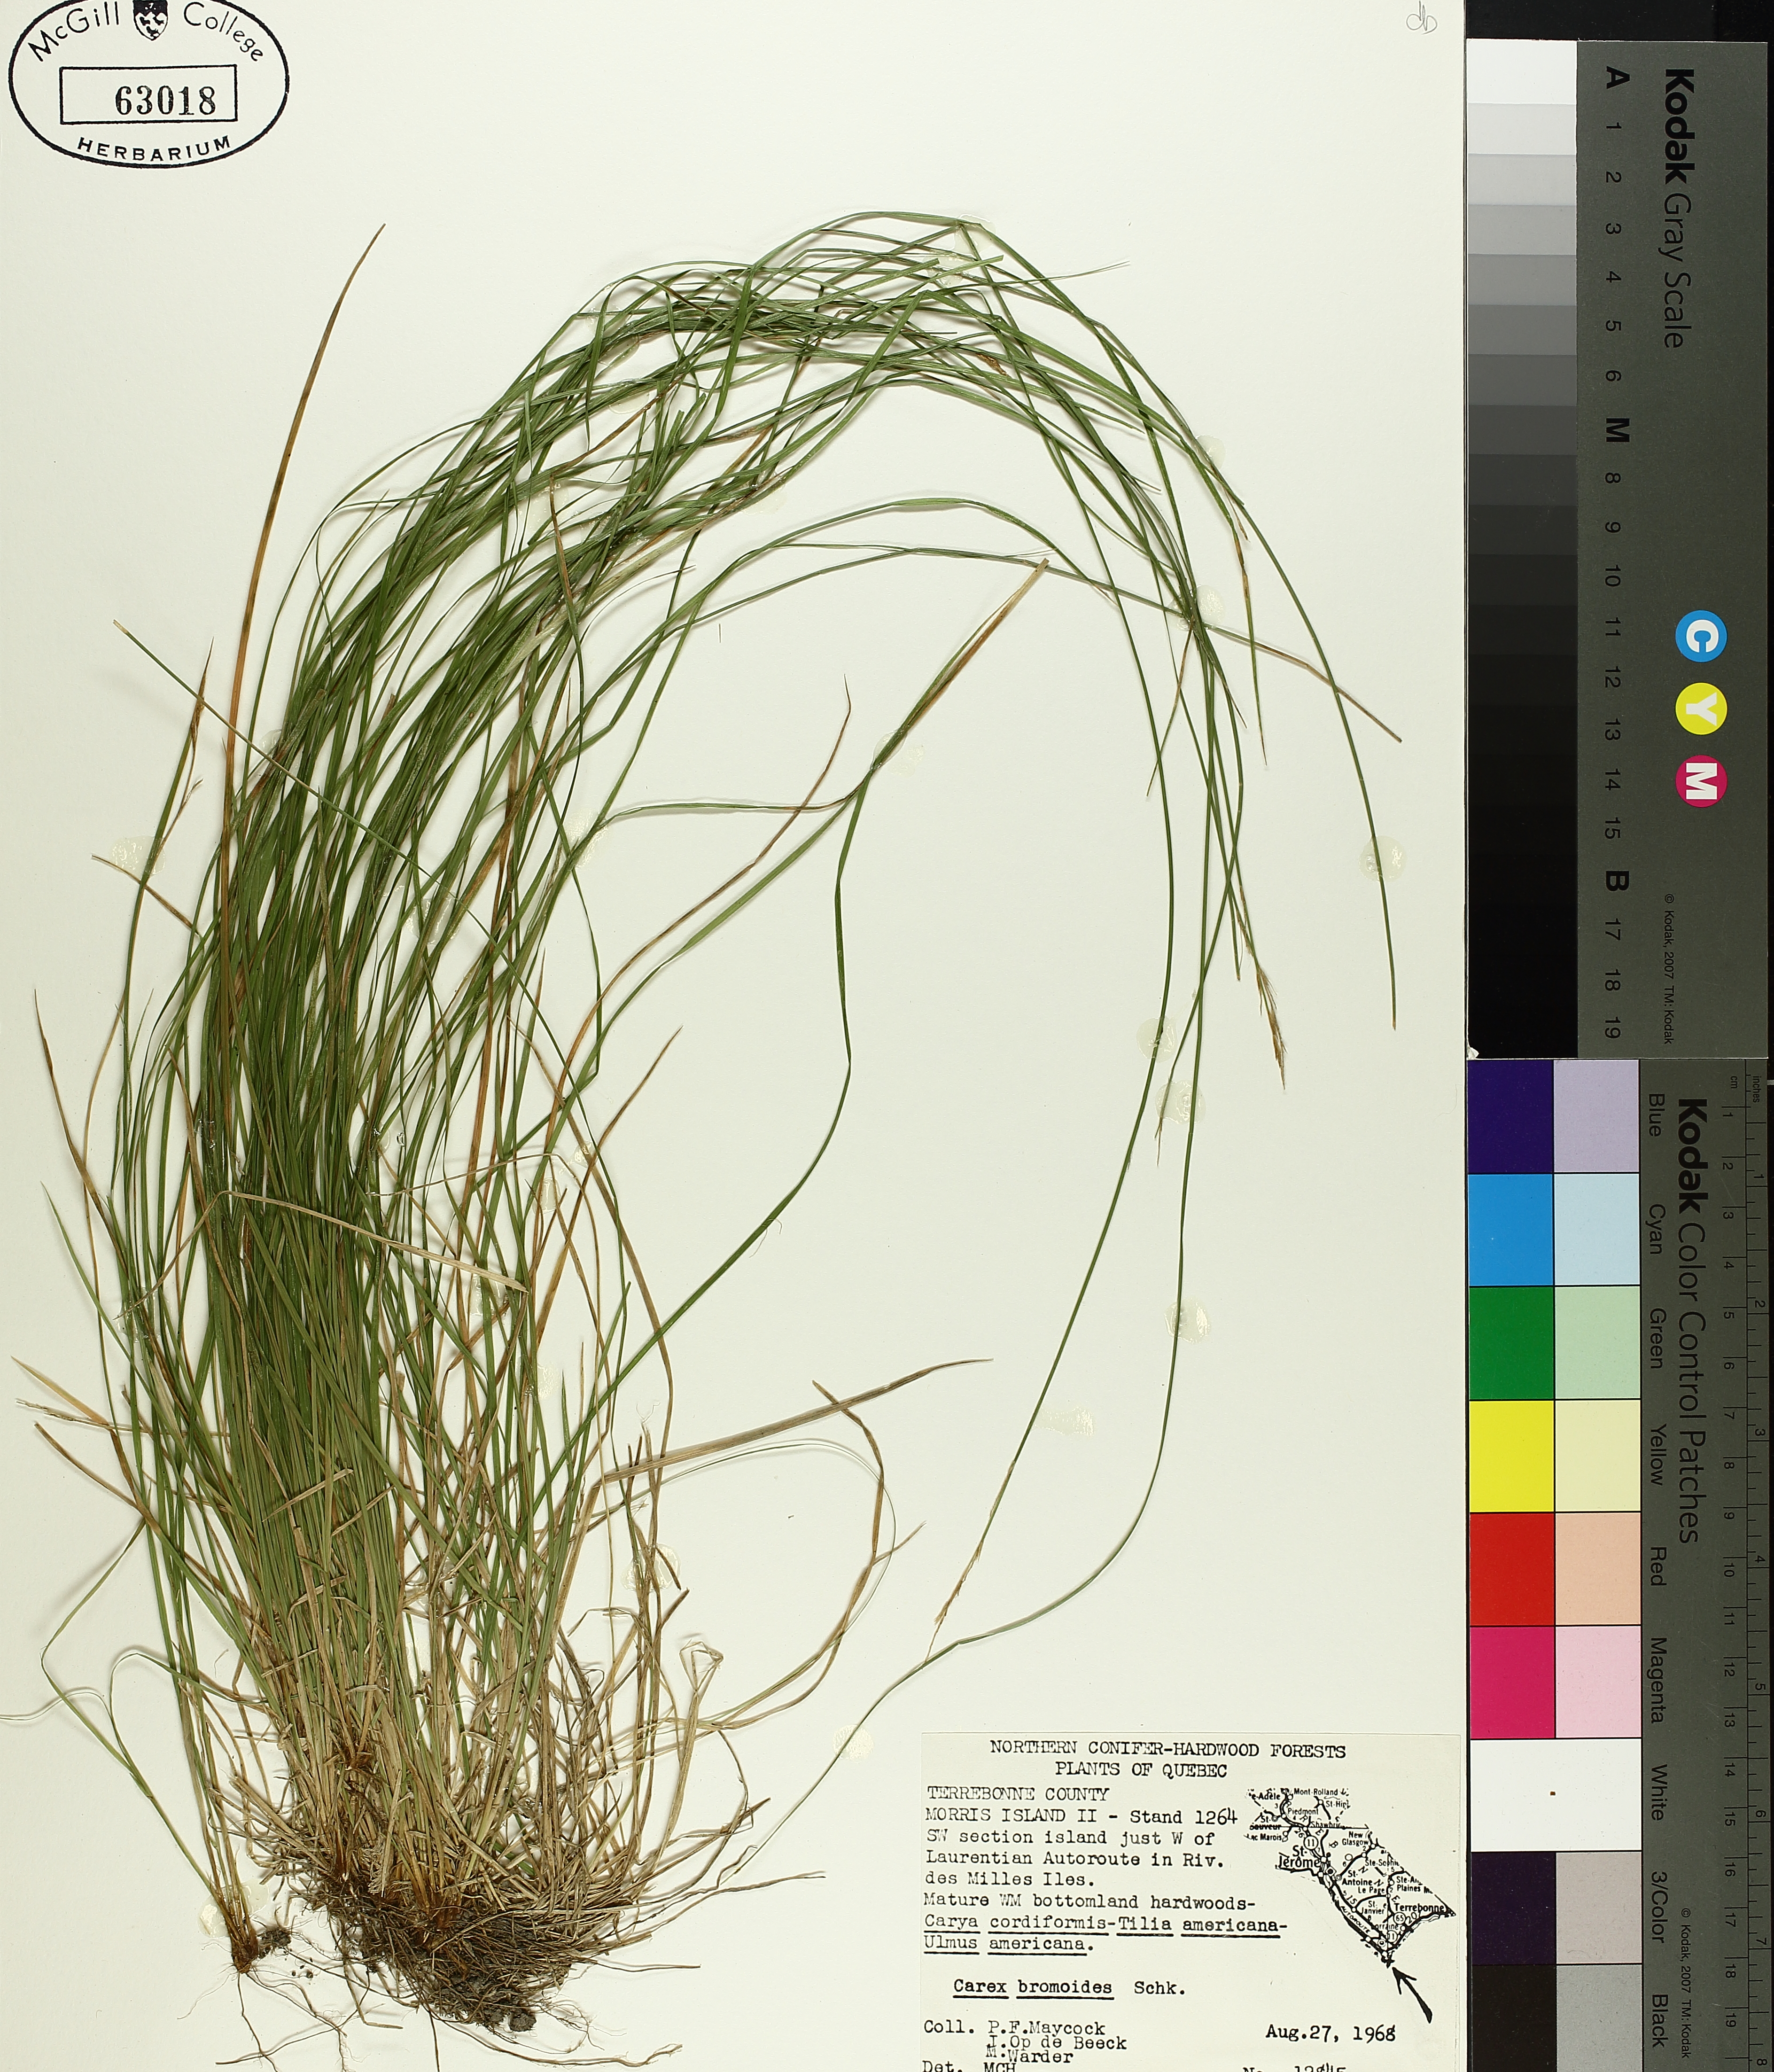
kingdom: Plantae
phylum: Tracheophyta
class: Liliopsida
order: Poales
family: Cyperaceae
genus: Carex
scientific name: Carex bromoides
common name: Brome hummock sedge
